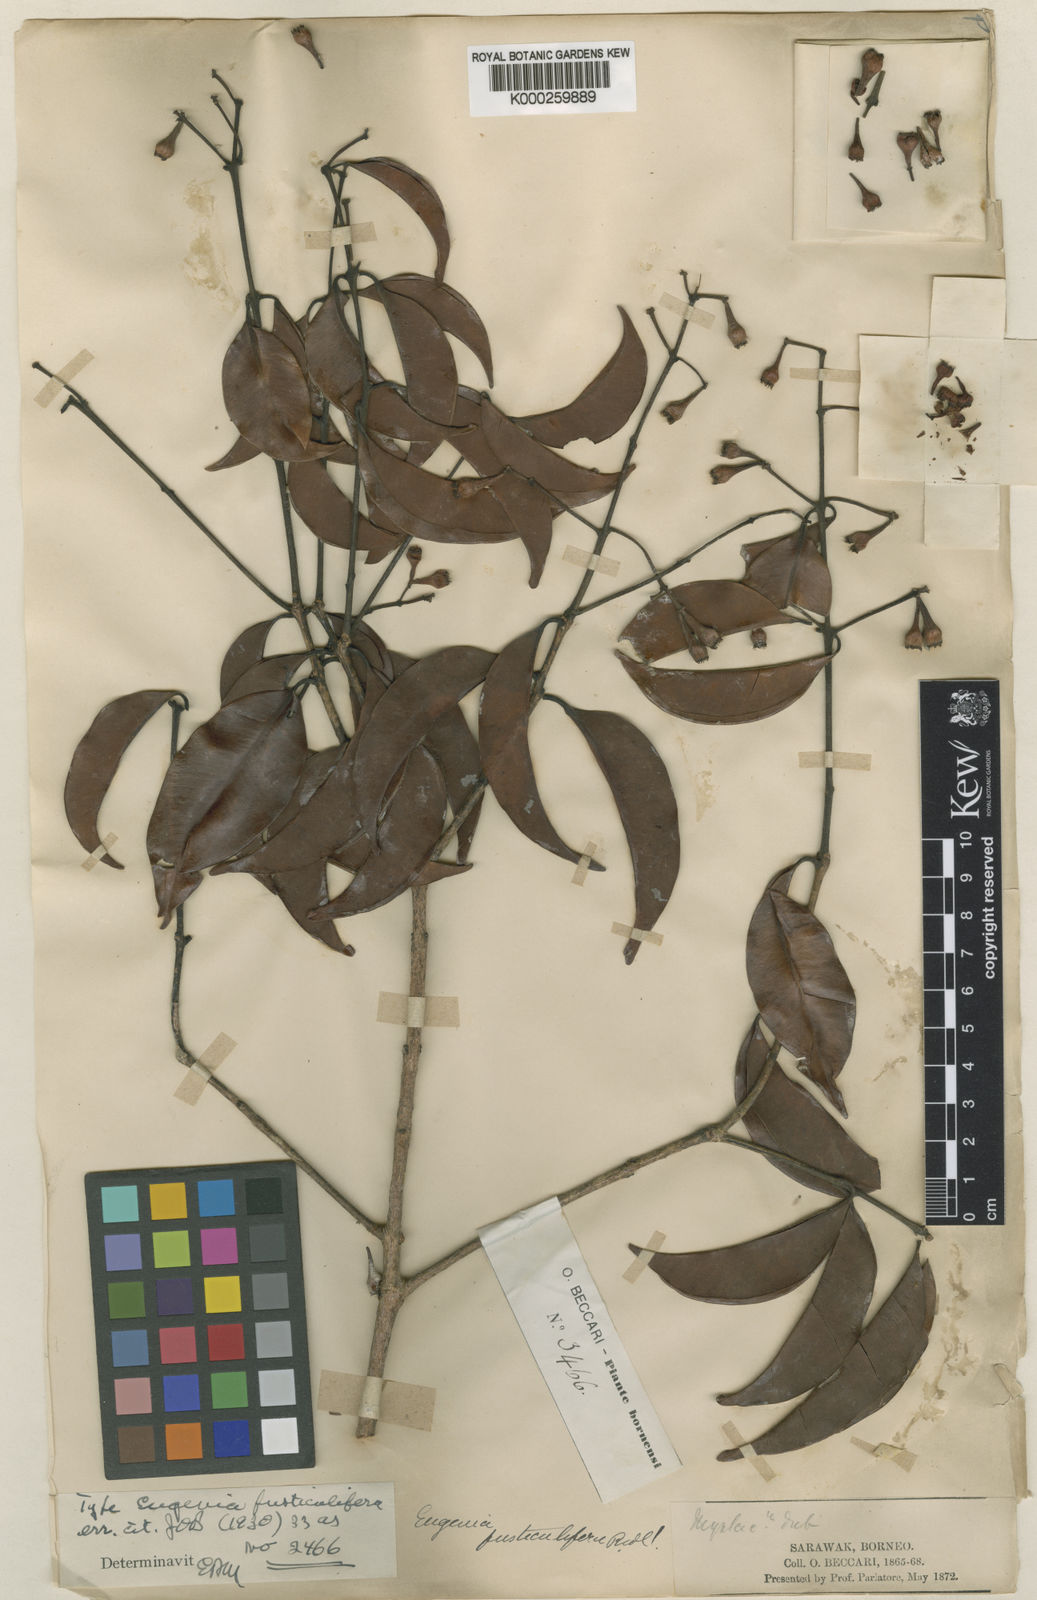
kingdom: Plantae
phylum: Tracheophyta
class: Magnoliopsida
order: Myrtales
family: Myrtaceae
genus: Syzygium
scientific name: Syzygium fusticuliferum
